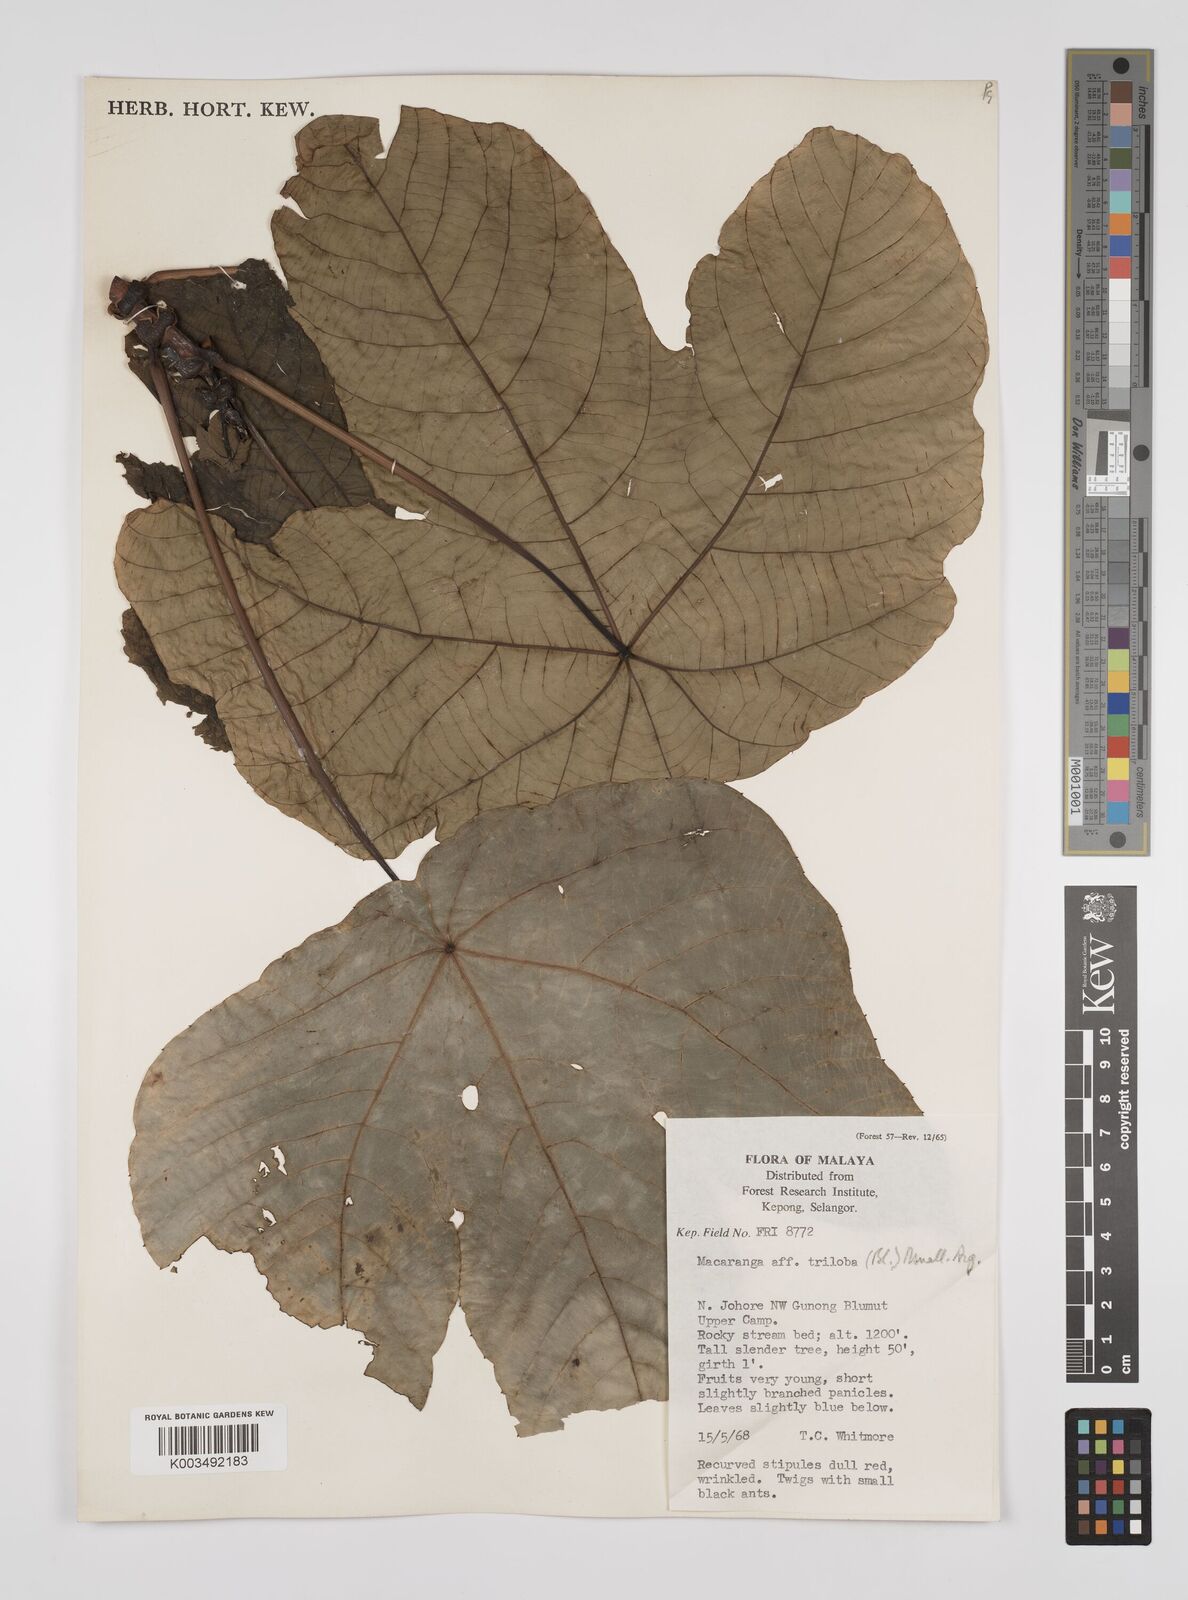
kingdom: Plantae
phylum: Tracheophyta
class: Magnoliopsida
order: Malpighiales
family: Euphorbiaceae
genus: Macaranga
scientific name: Macaranga triloba
